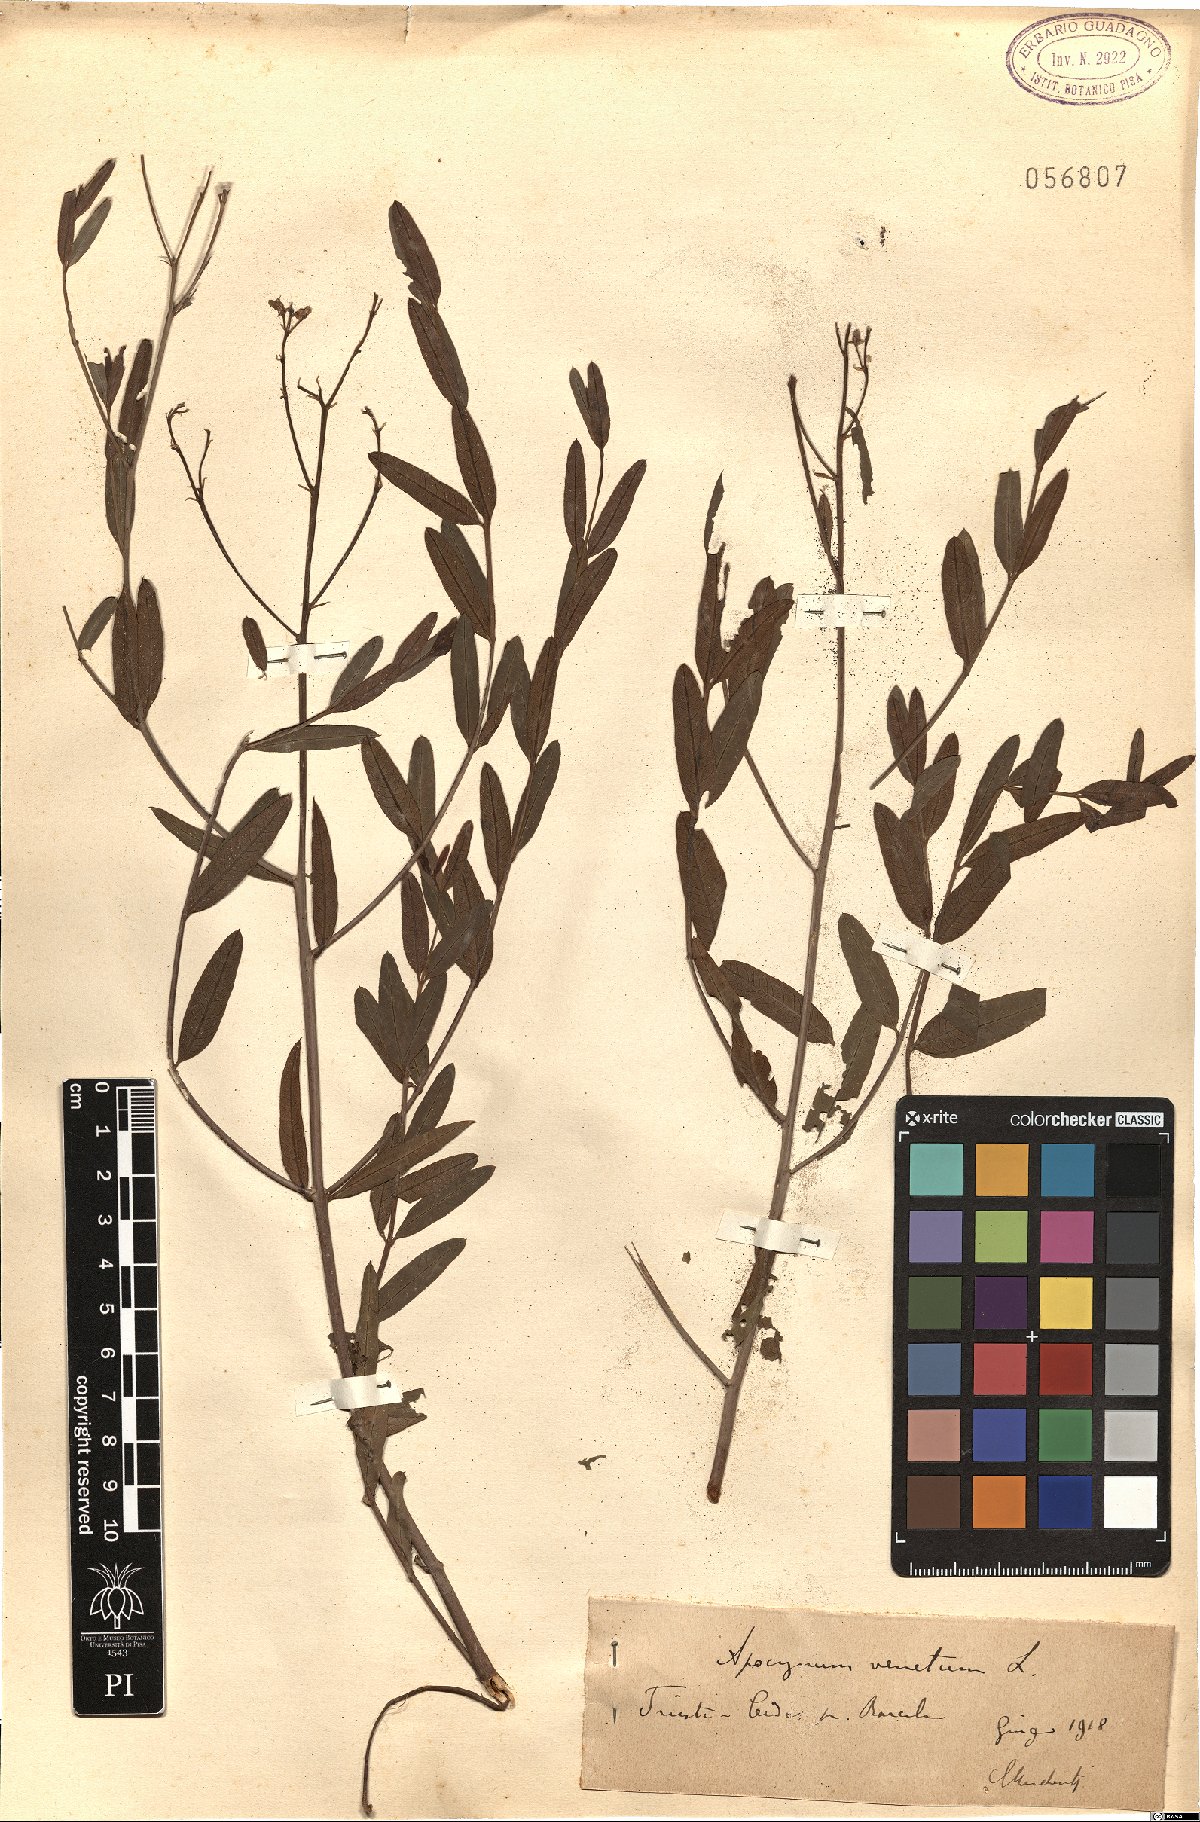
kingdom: Plantae
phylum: Tracheophyta
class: Magnoliopsida
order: Gentianales
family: Apocynaceae
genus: Poacynum
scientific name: Poacynum venetum
